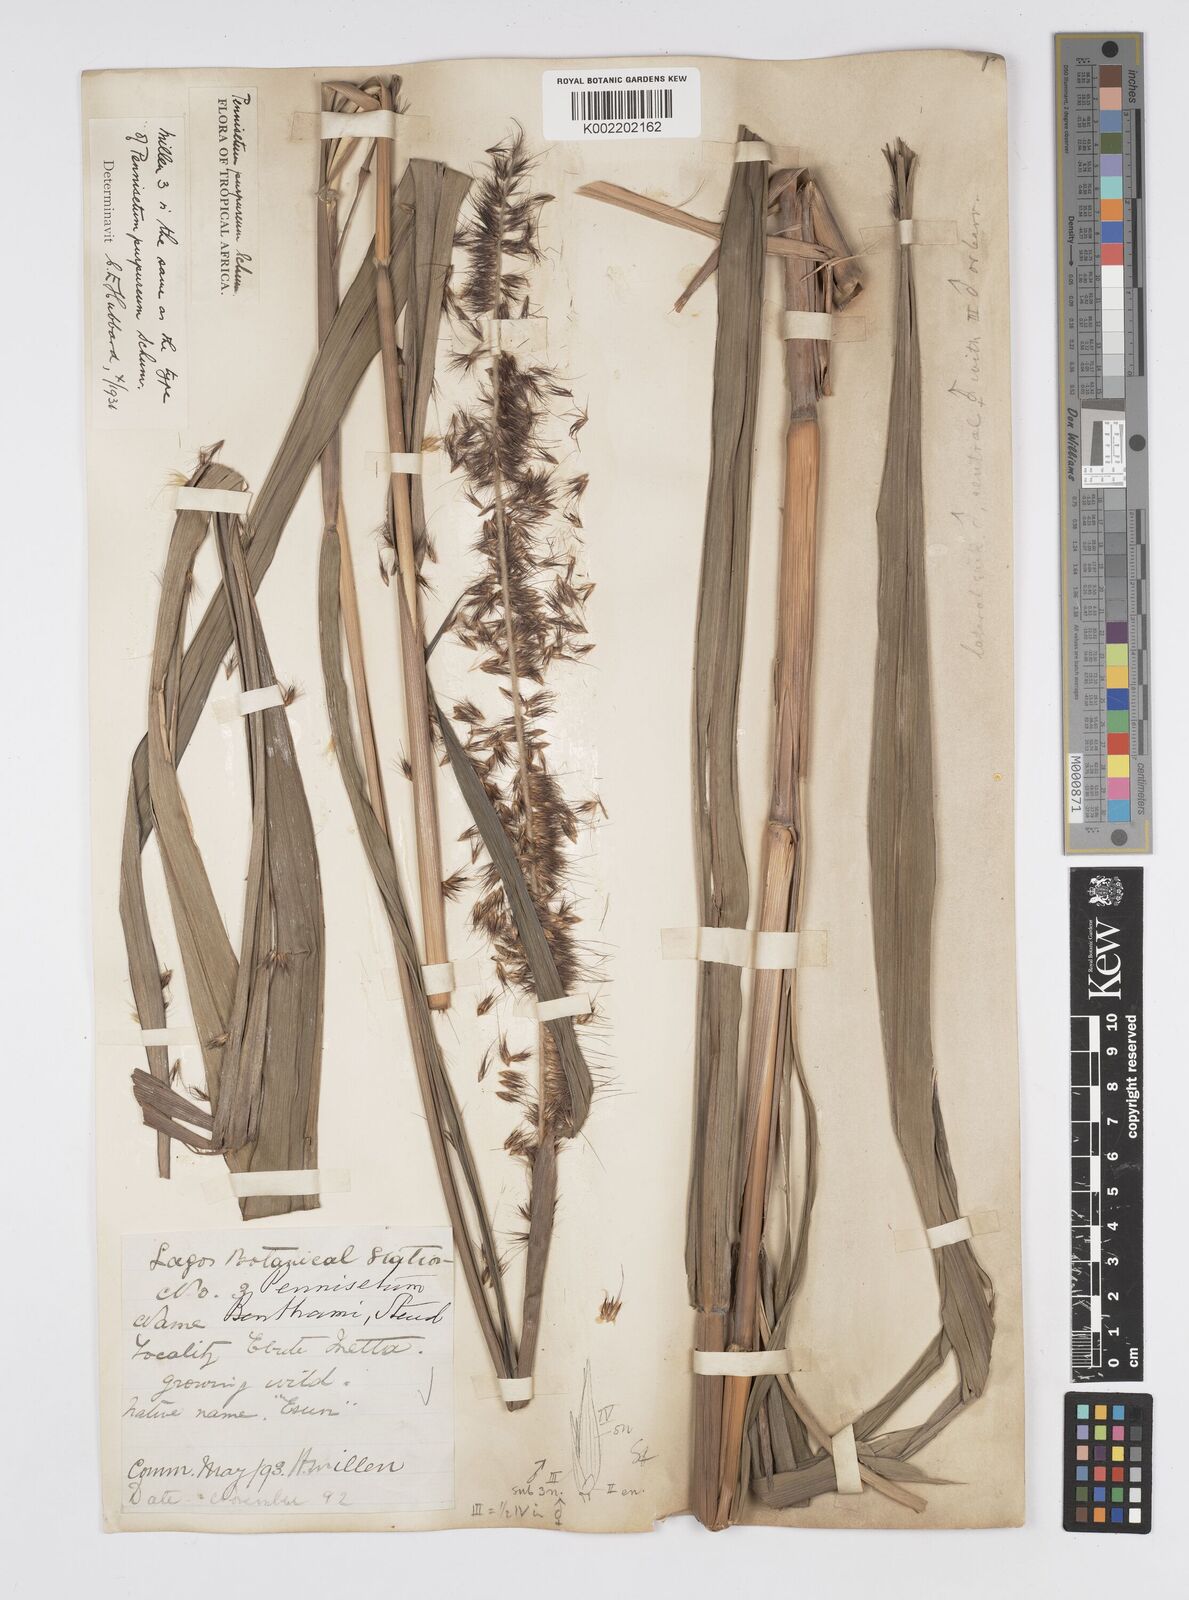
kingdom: Plantae
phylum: Tracheophyta
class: Liliopsida
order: Poales
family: Poaceae
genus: Cenchrus
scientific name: Cenchrus purpureus
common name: Elephant grass
